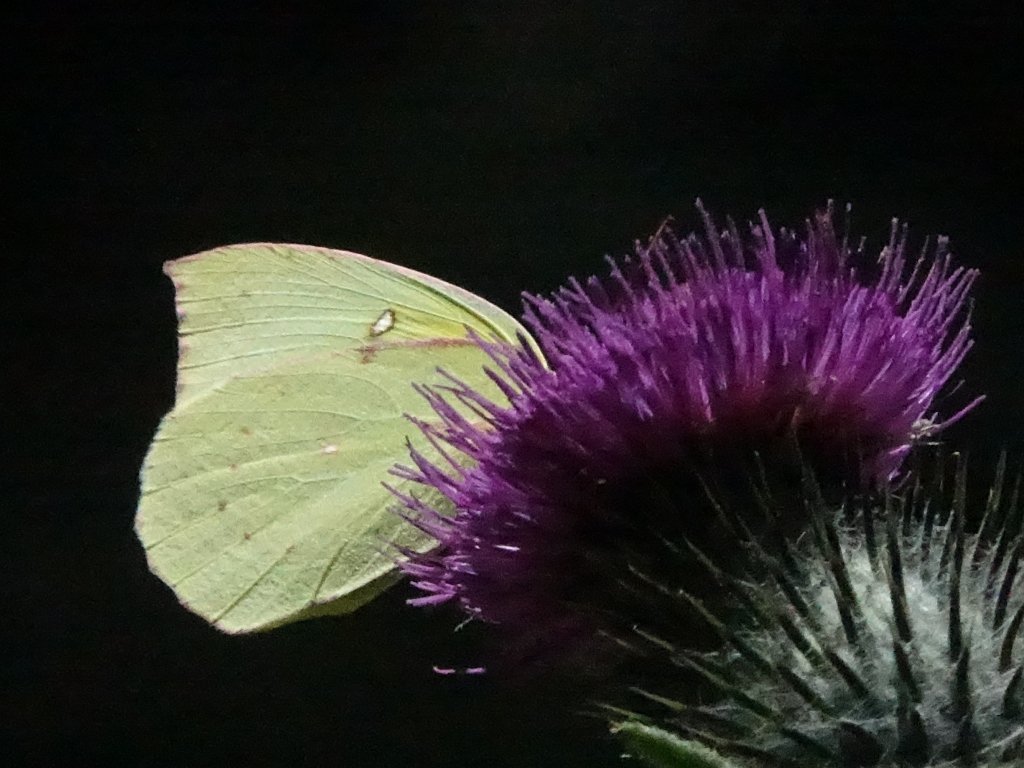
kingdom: Animalia
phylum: Arthropoda
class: Insecta
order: Lepidoptera
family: Pieridae
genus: Zerene
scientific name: Zerene eurydice
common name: California Dogface
